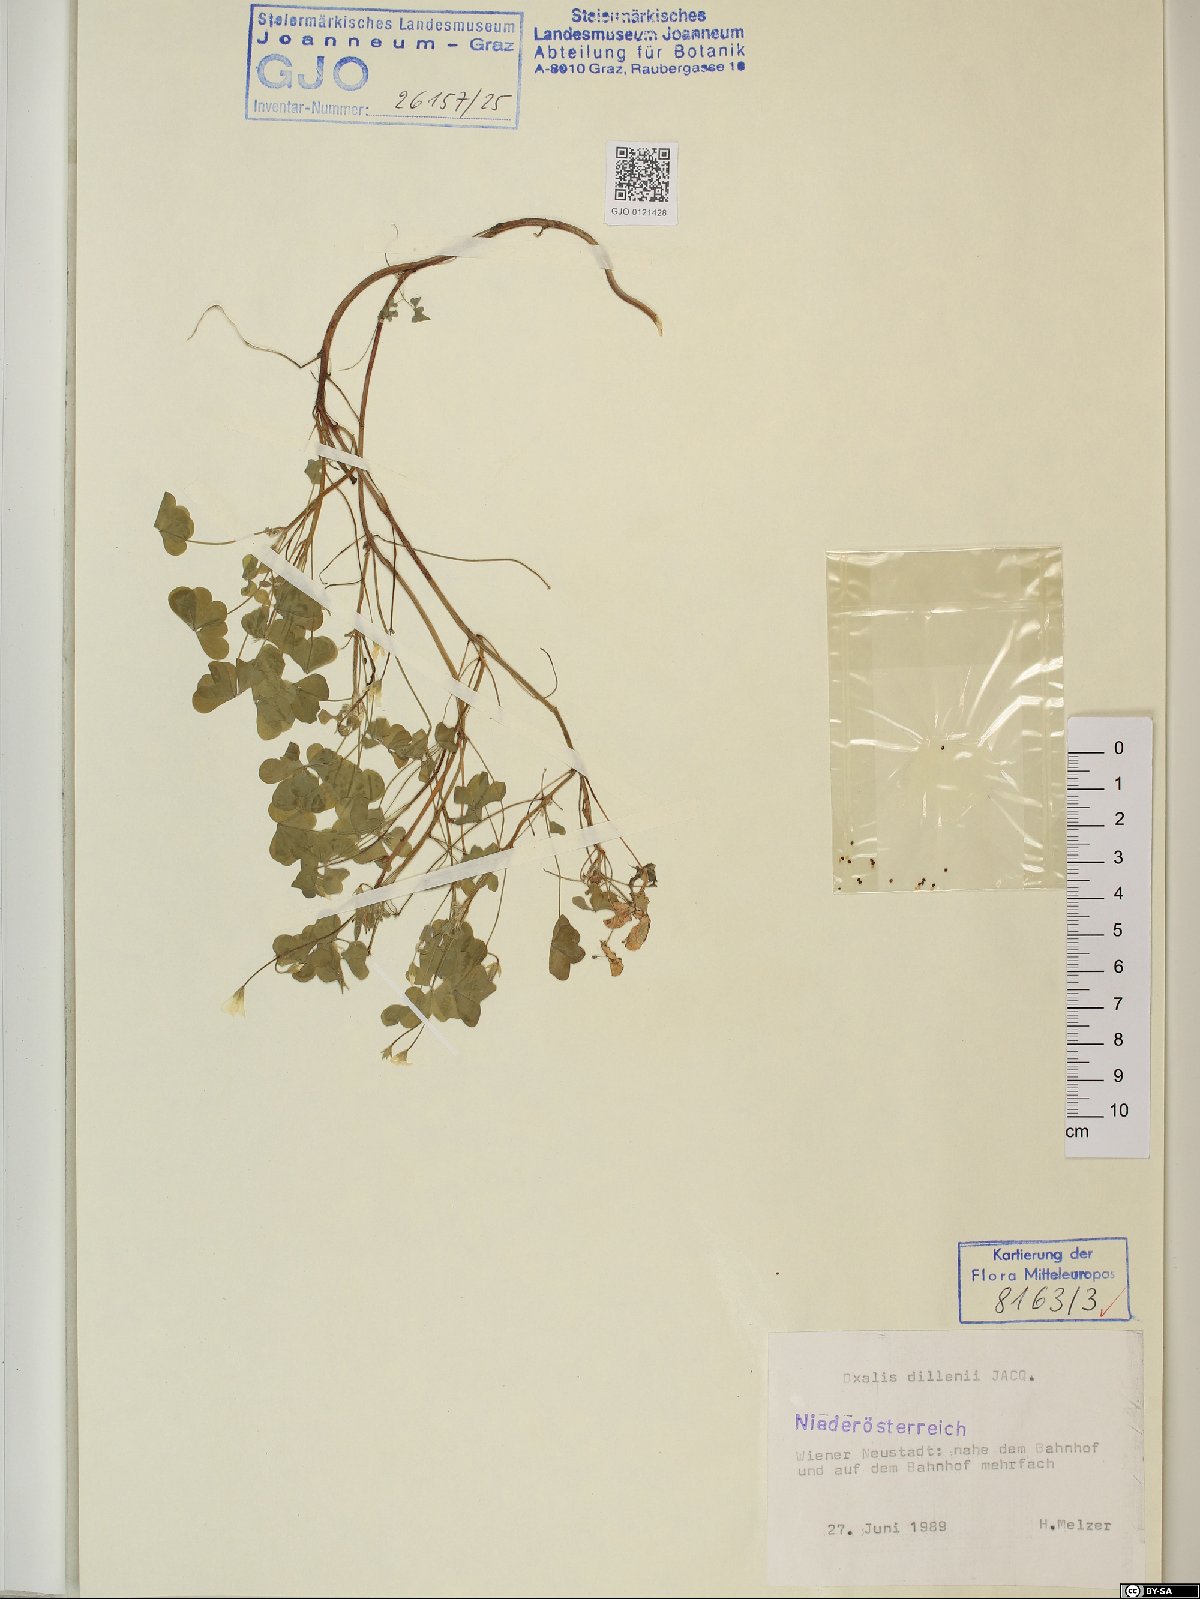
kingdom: Plantae
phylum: Tracheophyta
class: Magnoliopsida
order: Oxalidales
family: Oxalidaceae
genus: Oxalis
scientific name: Oxalis dillenii
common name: Sussex yellow-sorrel
